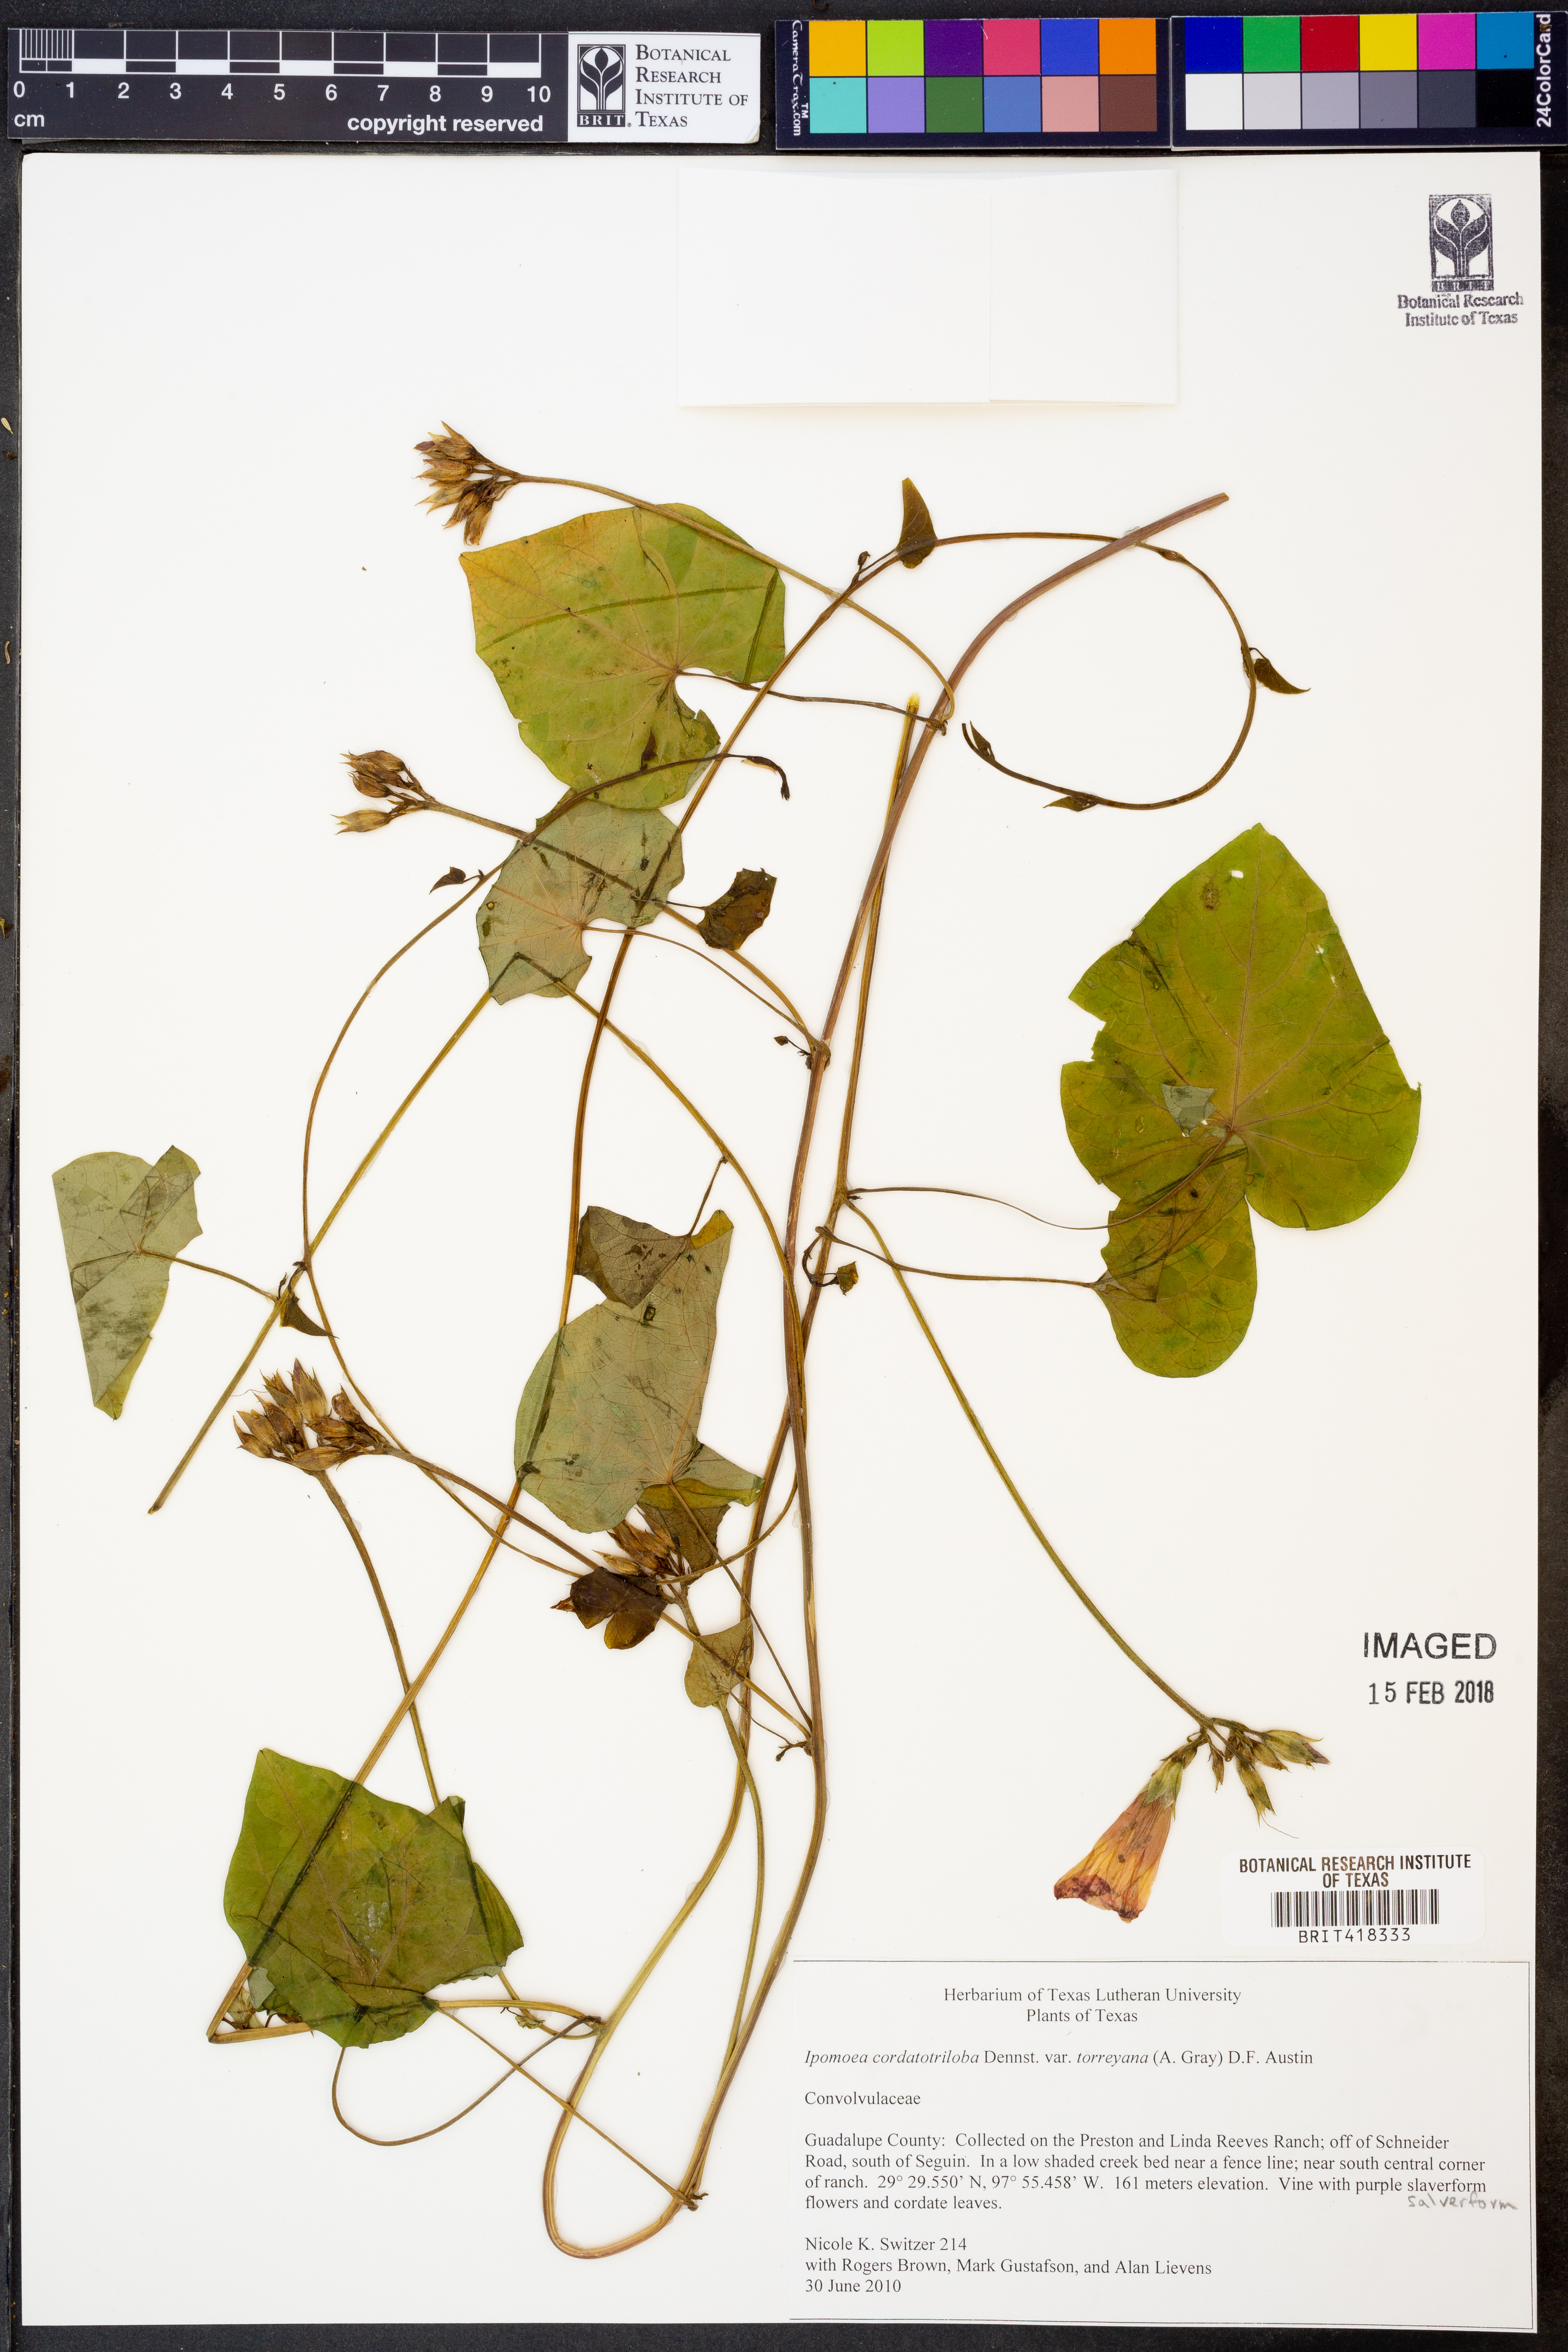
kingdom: Plantae
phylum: Tracheophyta
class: Magnoliopsida
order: Solanales
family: Convolvulaceae
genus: Ipomoea
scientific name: Ipomoea cordatotriloba
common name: Cotton morning glory
